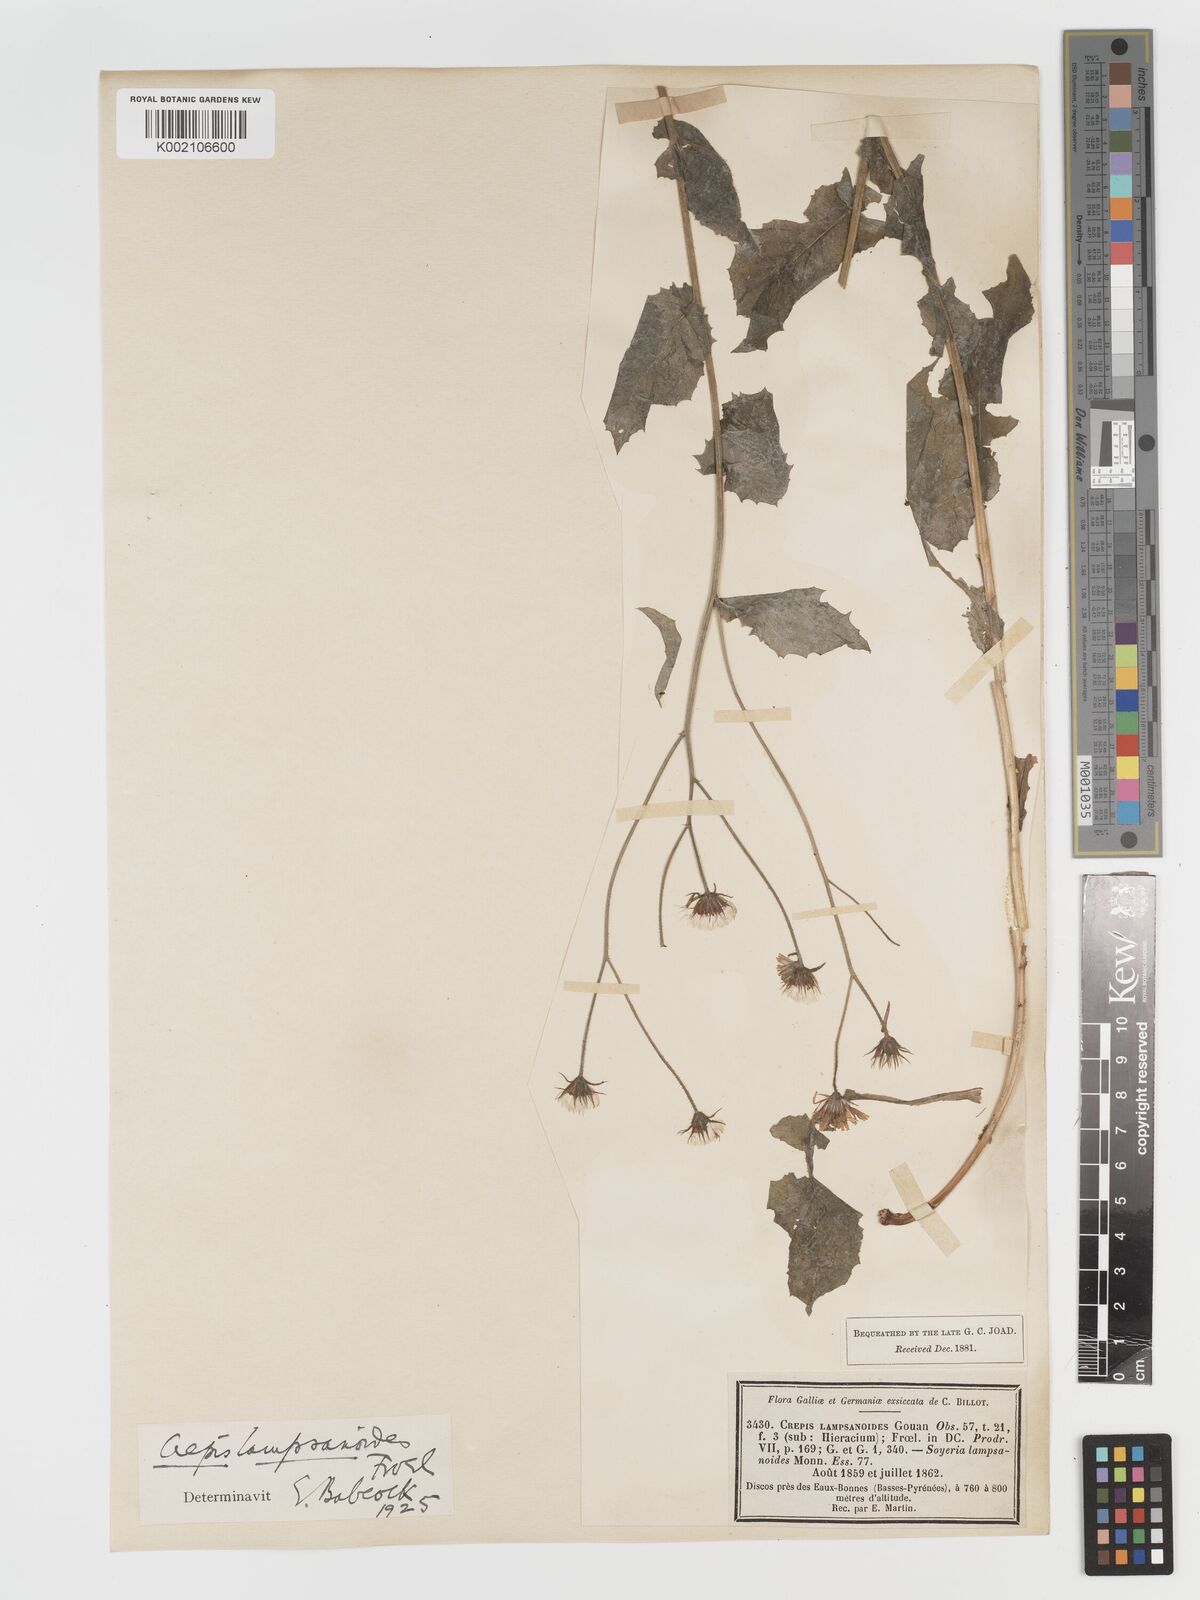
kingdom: Plantae
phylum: Tracheophyta
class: Magnoliopsida
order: Asterales
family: Asteraceae
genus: Crepis
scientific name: Crepis lampsanoides
